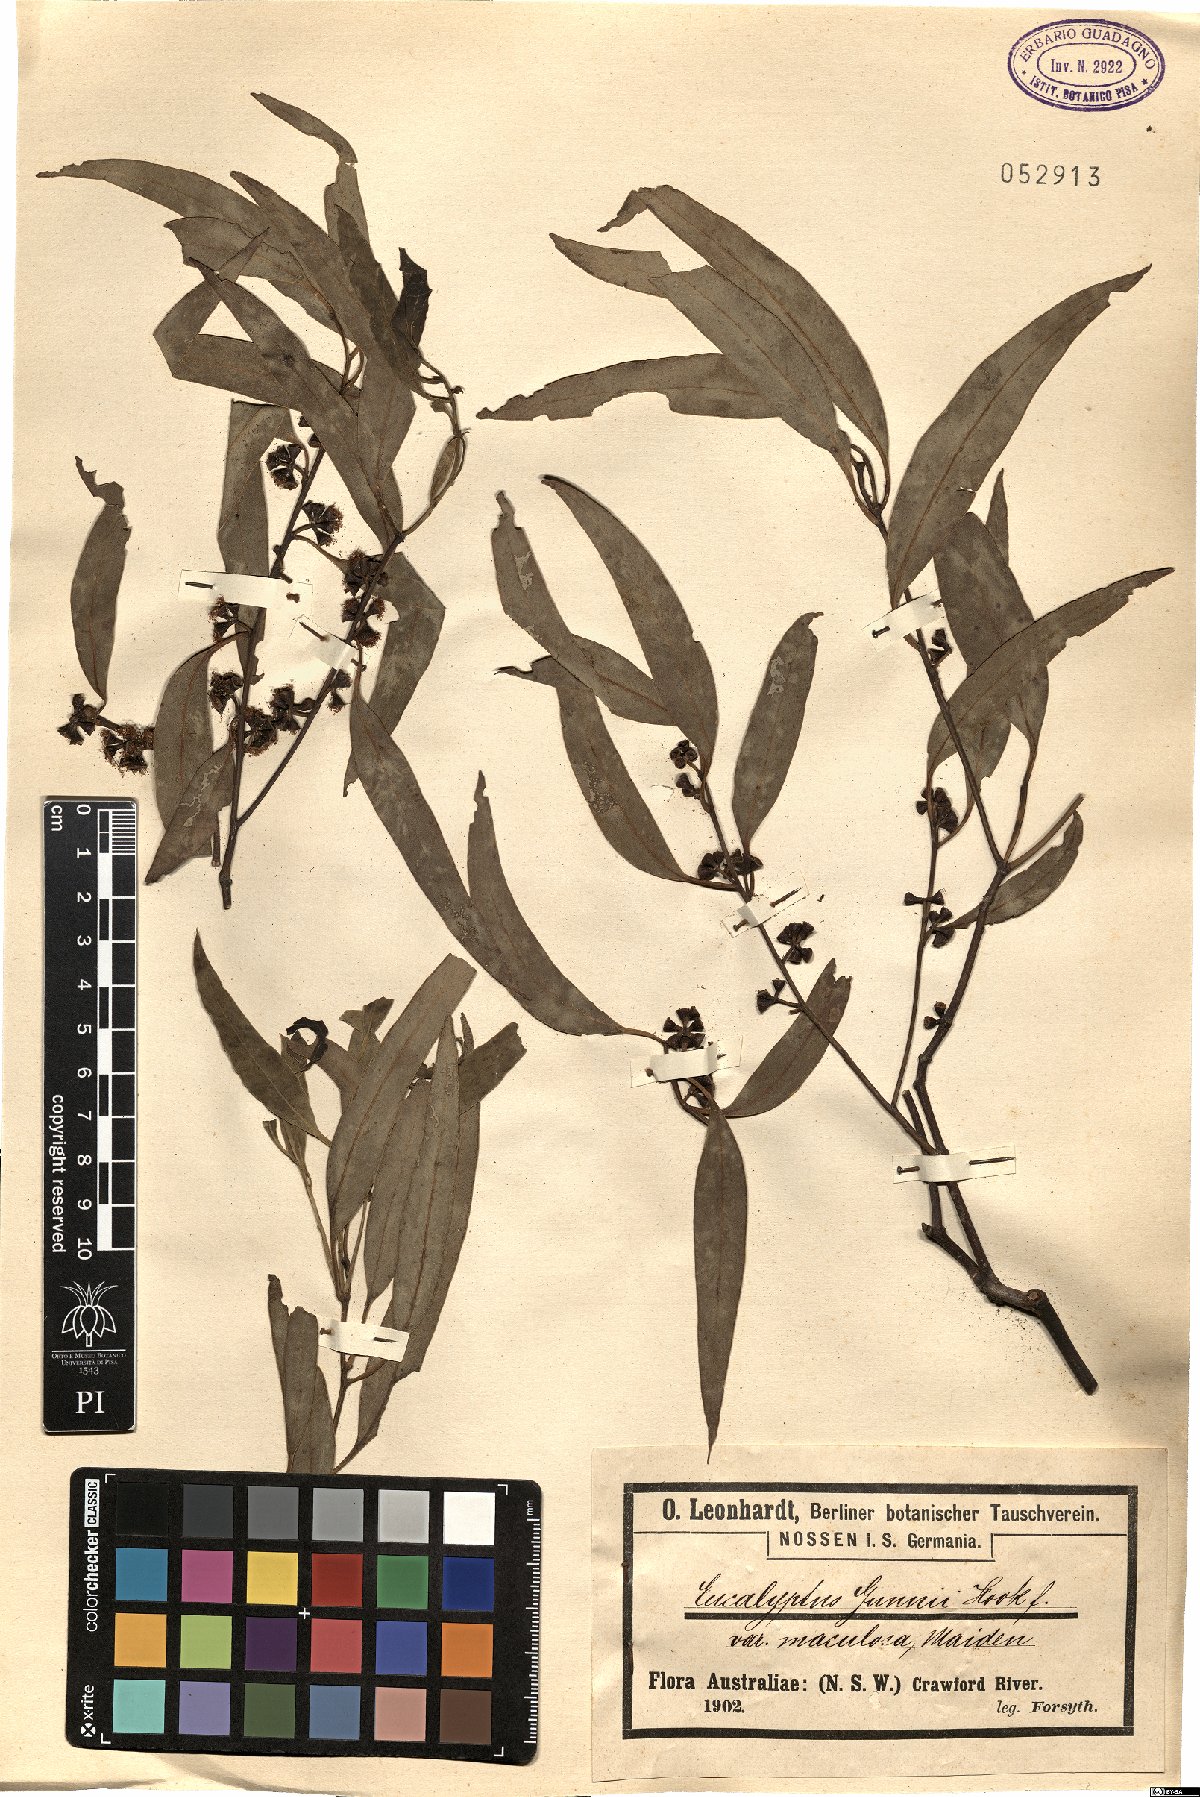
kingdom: Plantae
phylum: Tracheophyta
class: Magnoliopsida
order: Myrtales
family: Myrtaceae
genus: Eucalyptus
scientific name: Eucalyptus mannifera
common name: Manna gum
